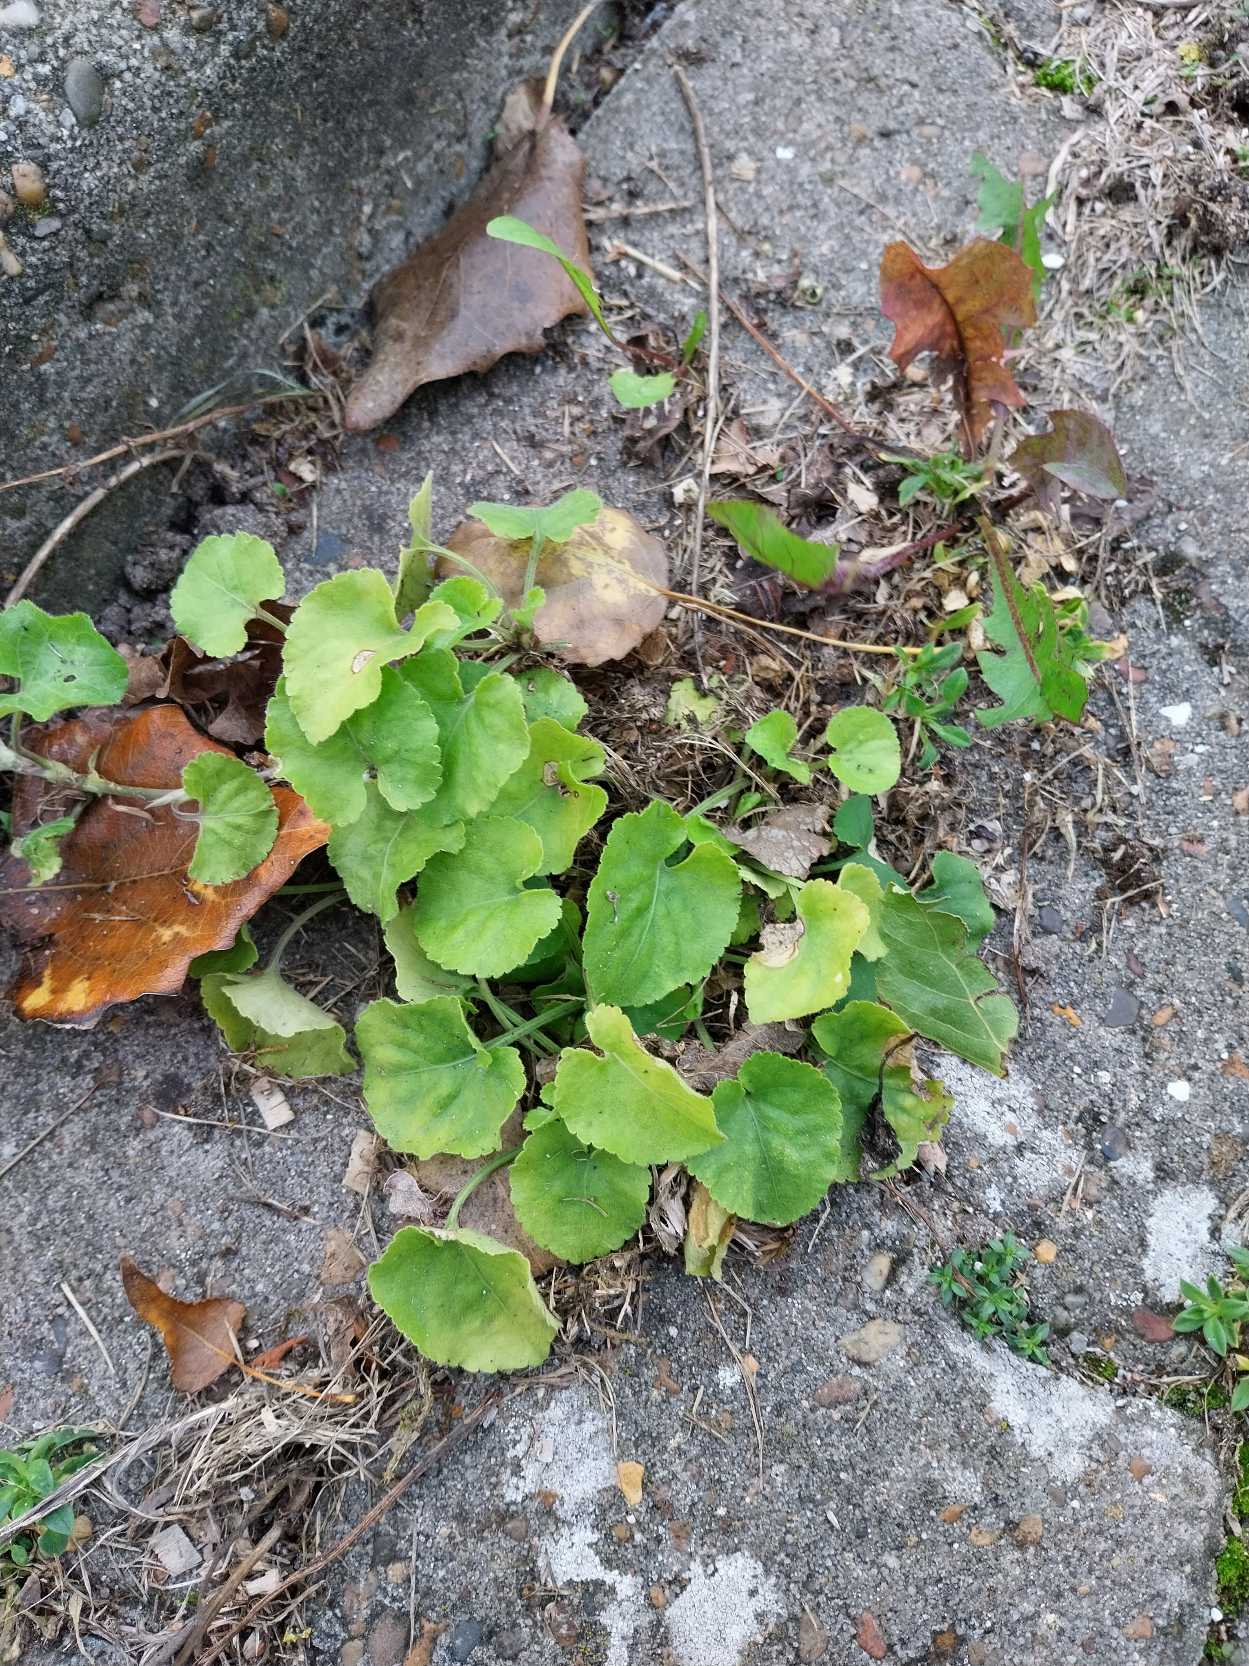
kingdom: Plantae
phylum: Tracheophyta
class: Magnoliopsida
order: Malpighiales
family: Violaceae
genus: Viola
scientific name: Viola odorata
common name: Marts-viol
